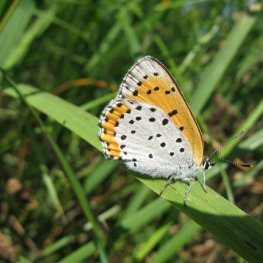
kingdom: Animalia
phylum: Arthropoda
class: Insecta
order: Lepidoptera
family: Sesiidae
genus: Sesia
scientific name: Sesia Lycaena hyllus
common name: Bronze Copper
